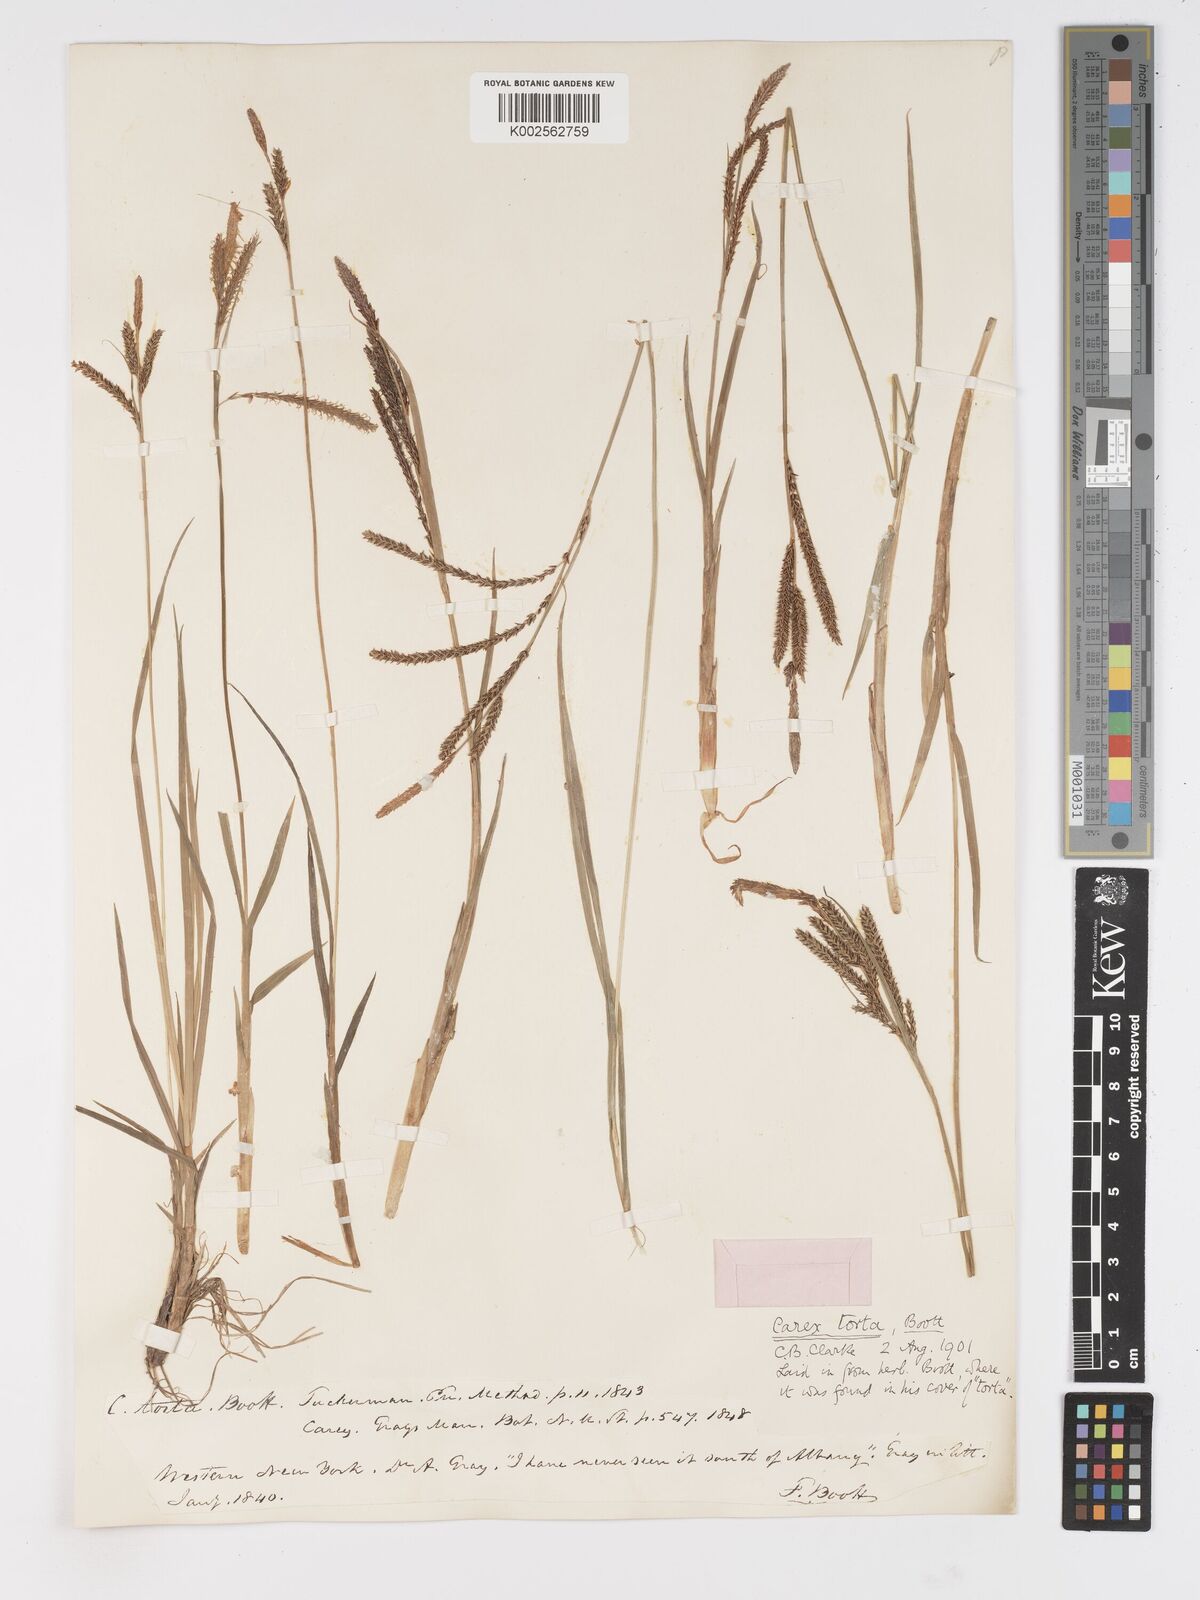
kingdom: Plantae
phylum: Tracheophyta
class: Liliopsida
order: Poales
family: Cyperaceae
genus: Carex
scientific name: Carex torta
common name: Twisted sedge
